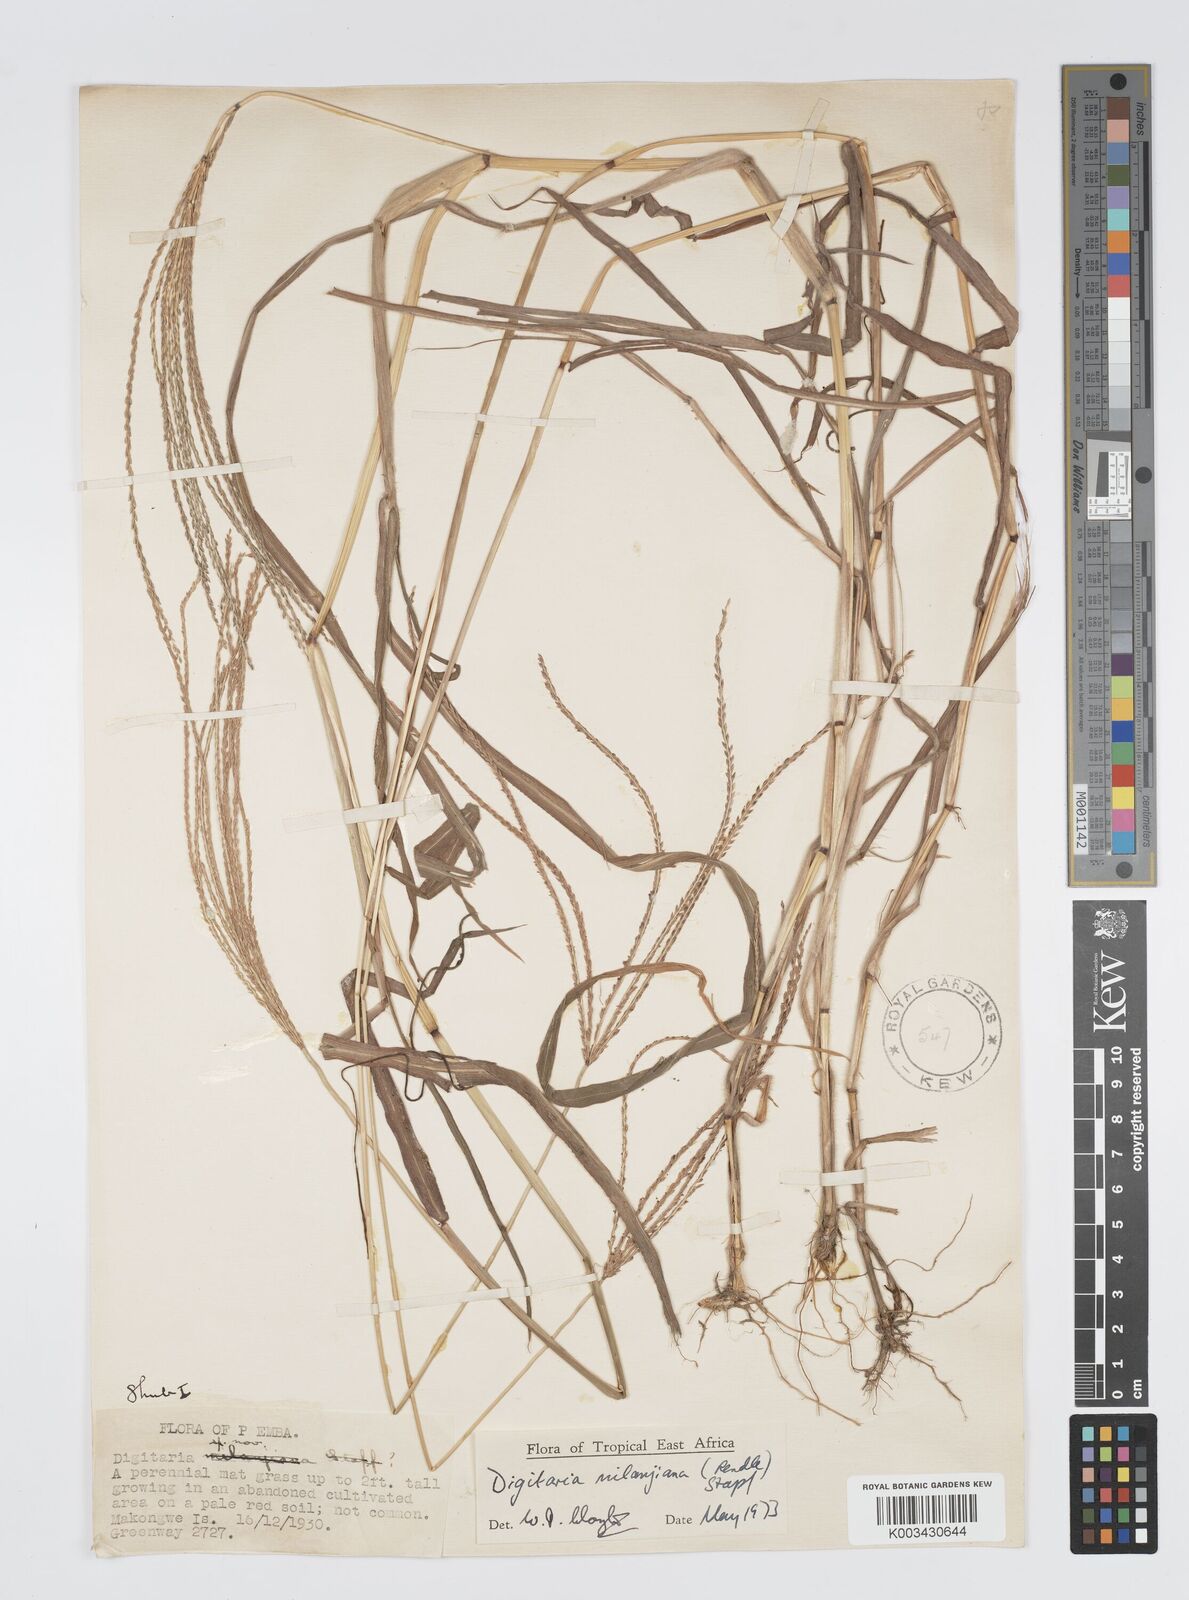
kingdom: Plantae
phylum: Tracheophyta
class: Liliopsida
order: Poales
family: Poaceae
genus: Digitaria
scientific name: Digitaria milanjiana
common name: Madagascar crabgrass
